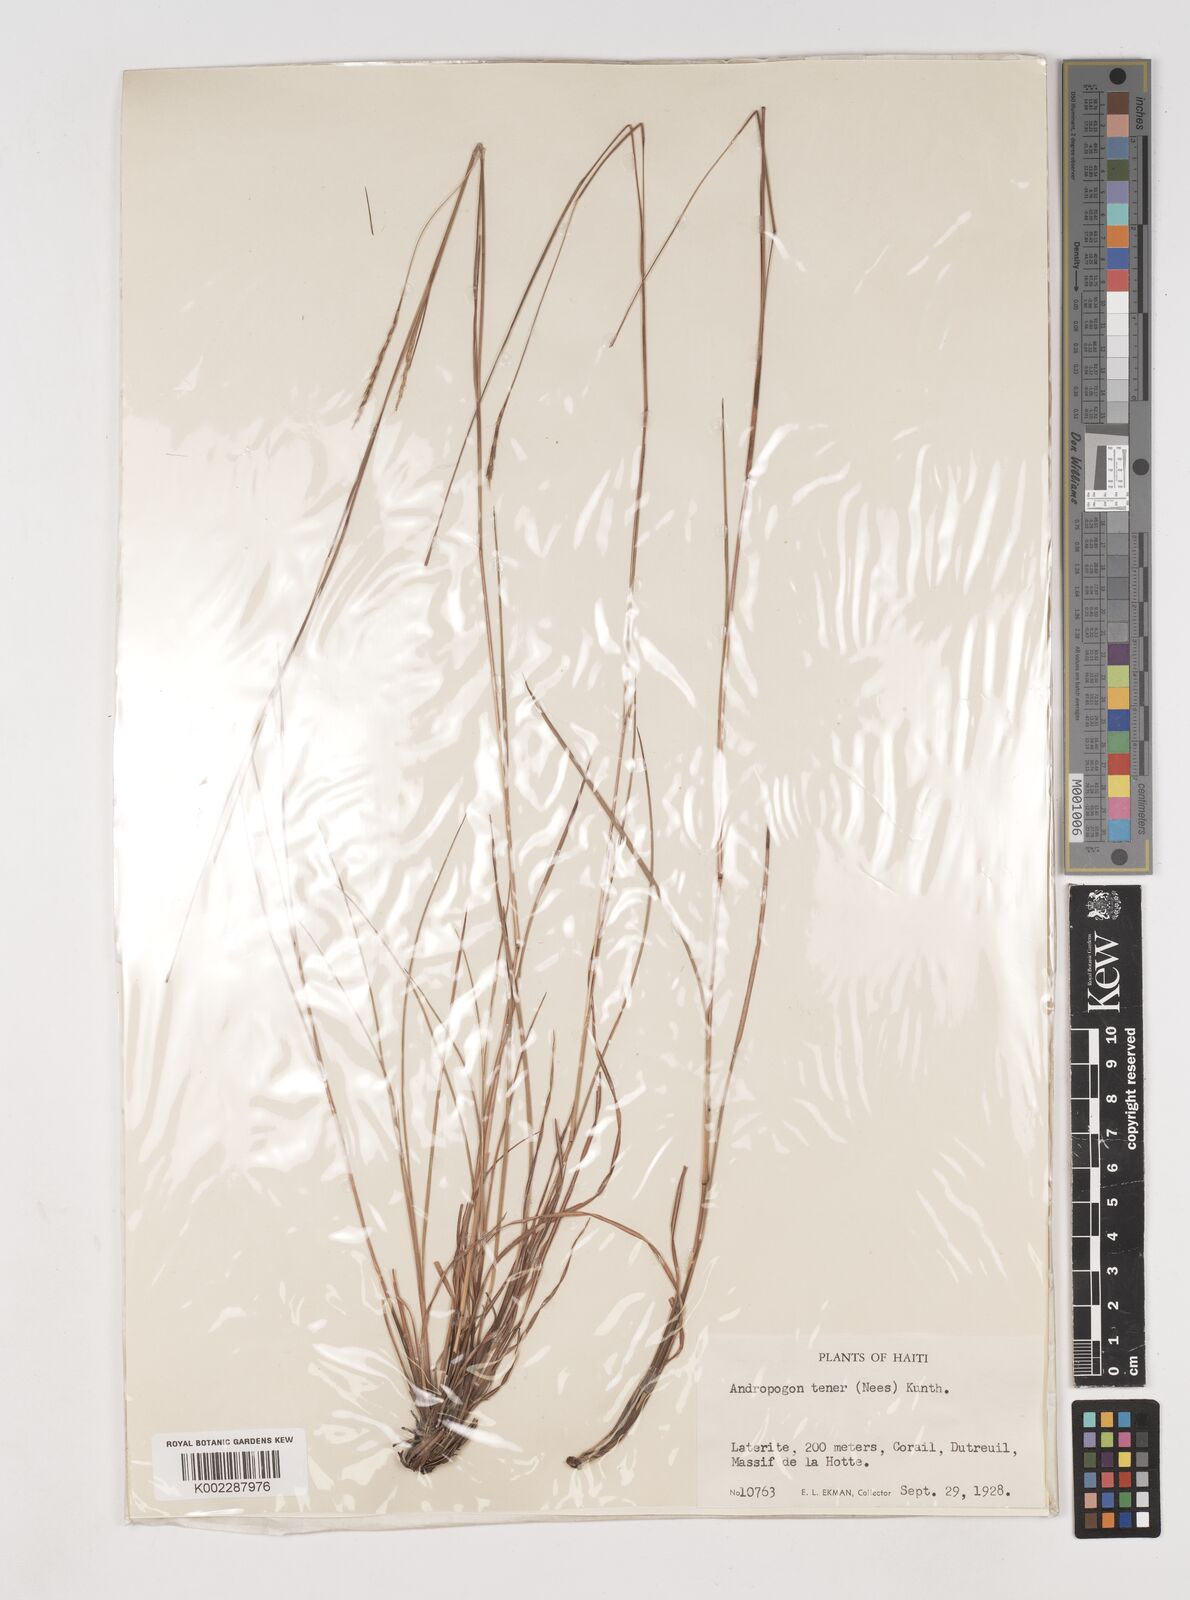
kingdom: Plantae
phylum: Tracheophyta
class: Liliopsida
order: Poales
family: Poaceae
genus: Andropogon
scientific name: Andropogon tener
